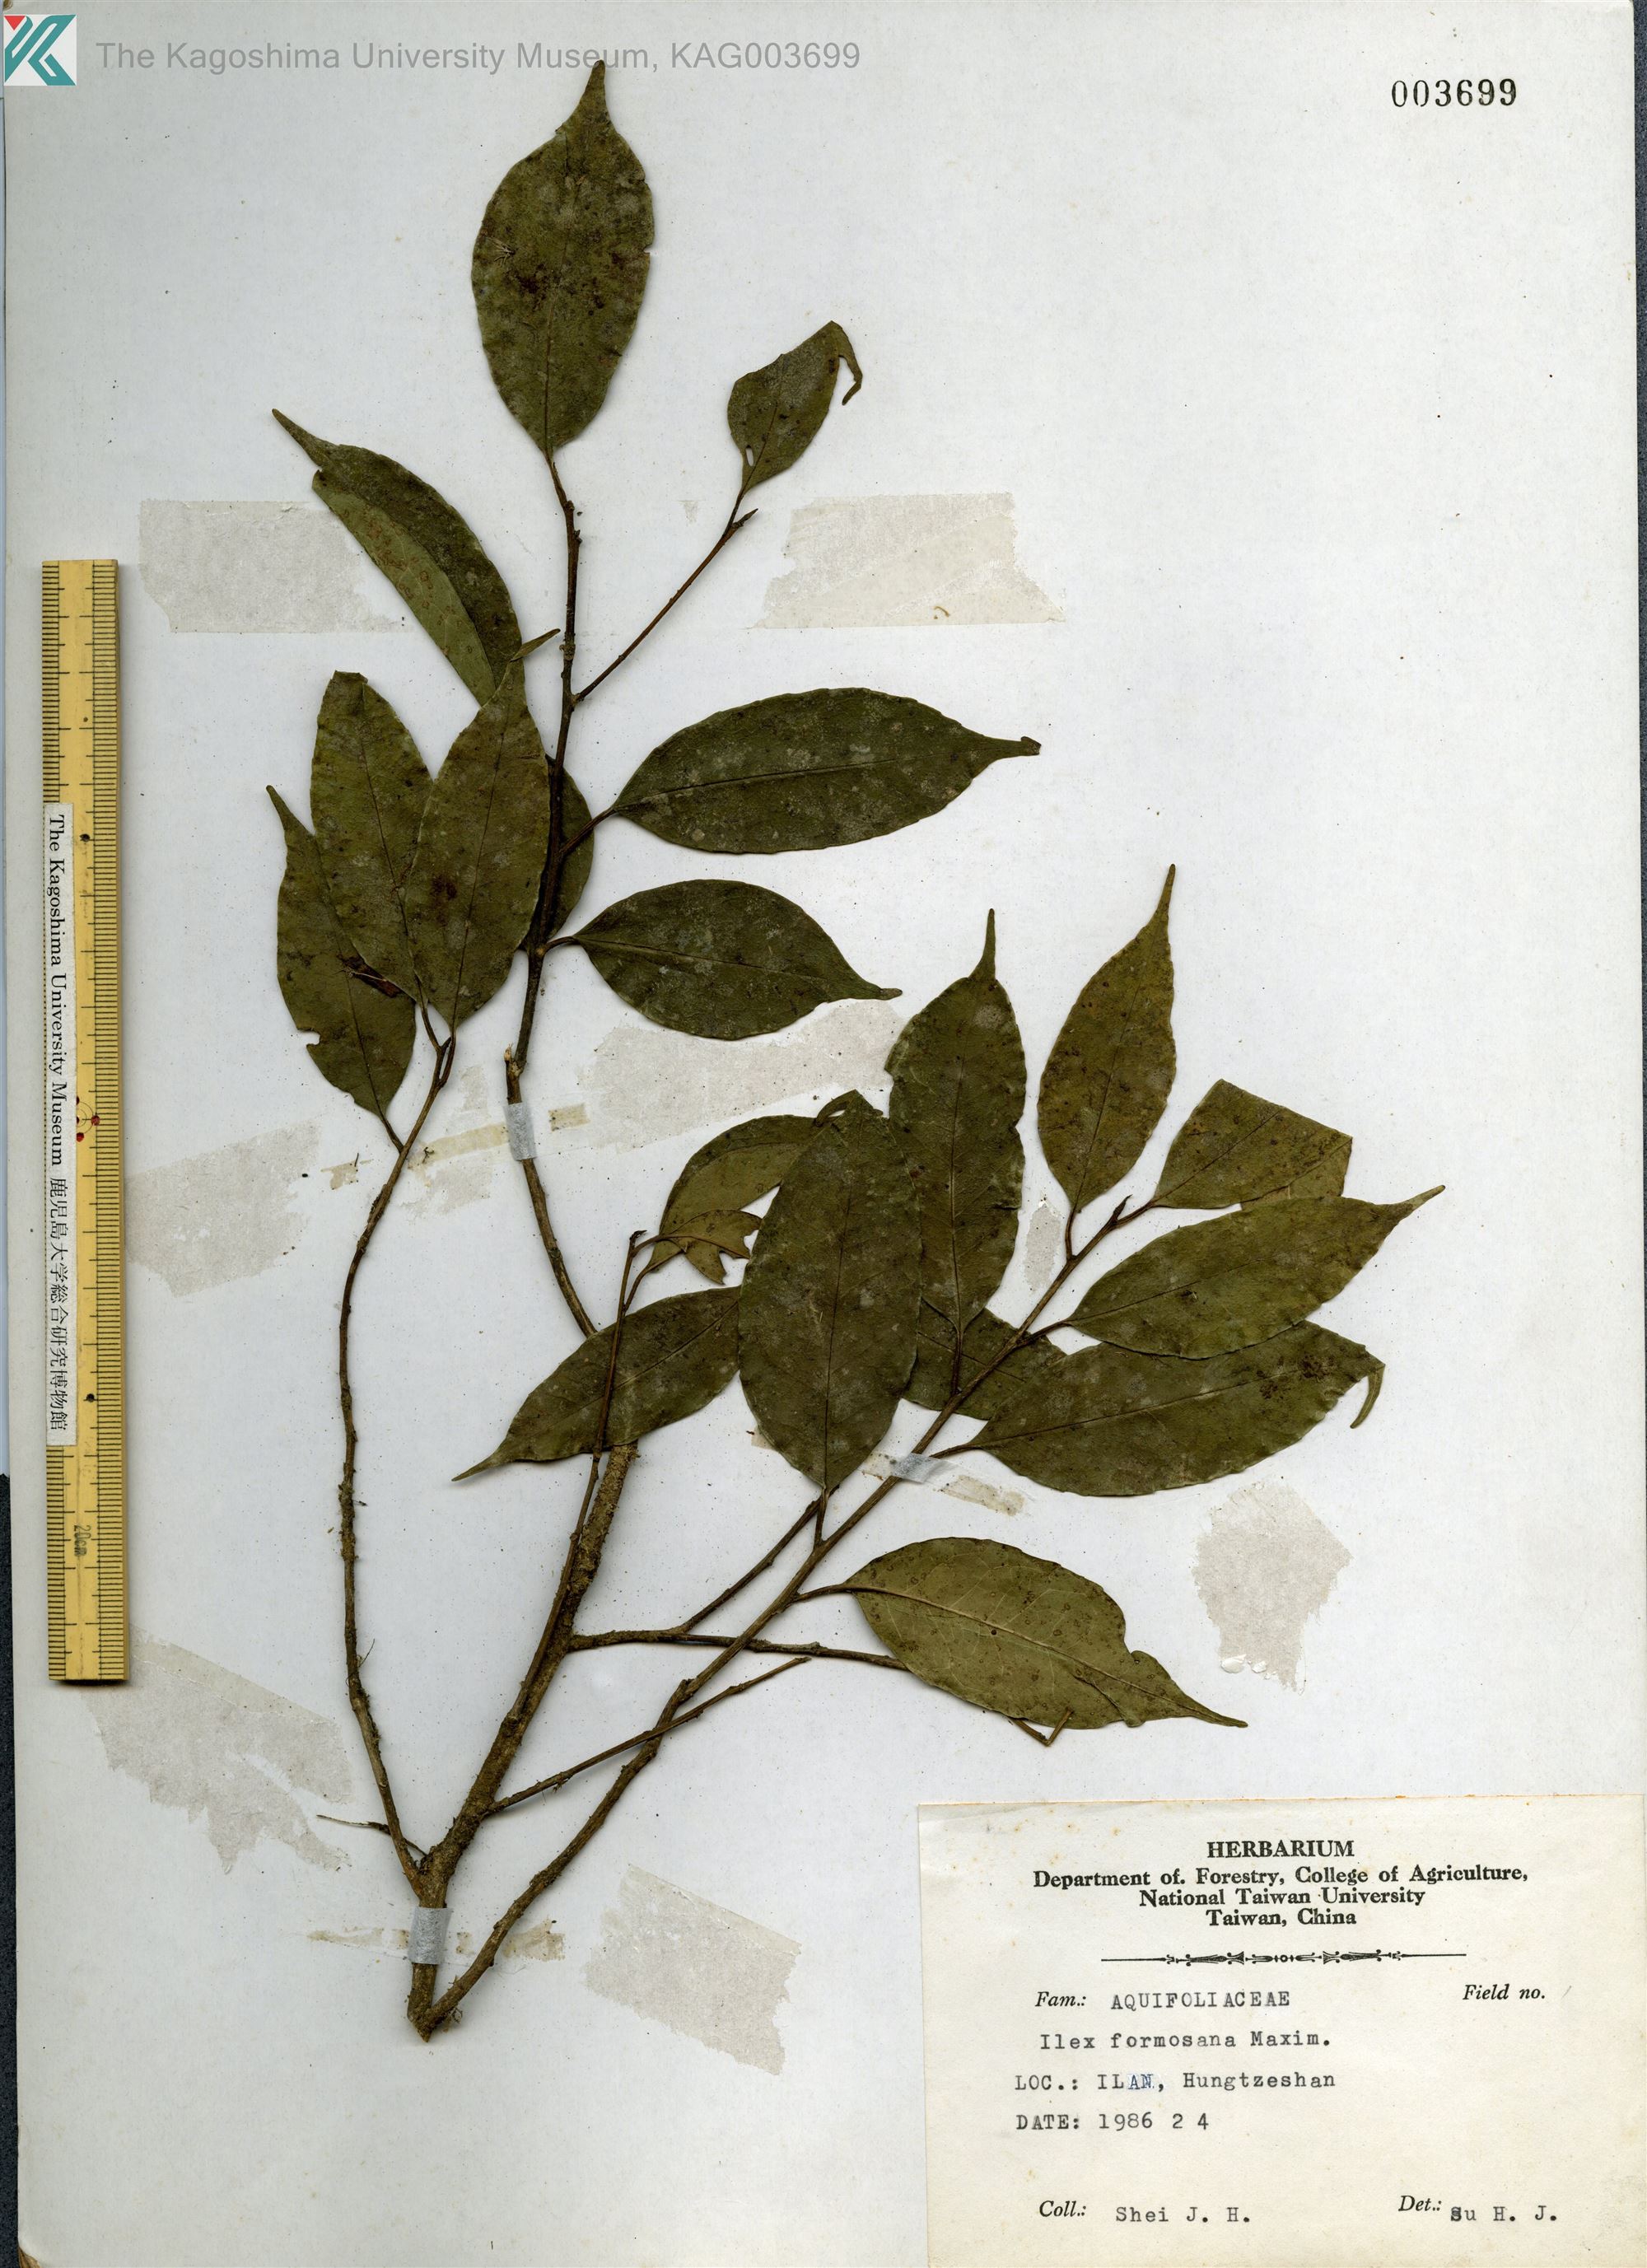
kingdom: Plantae
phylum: Tracheophyta
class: Magnoliopsida
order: Aquifoliales
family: Aquifoliaceae
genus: Ilex
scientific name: Ilex formosana
